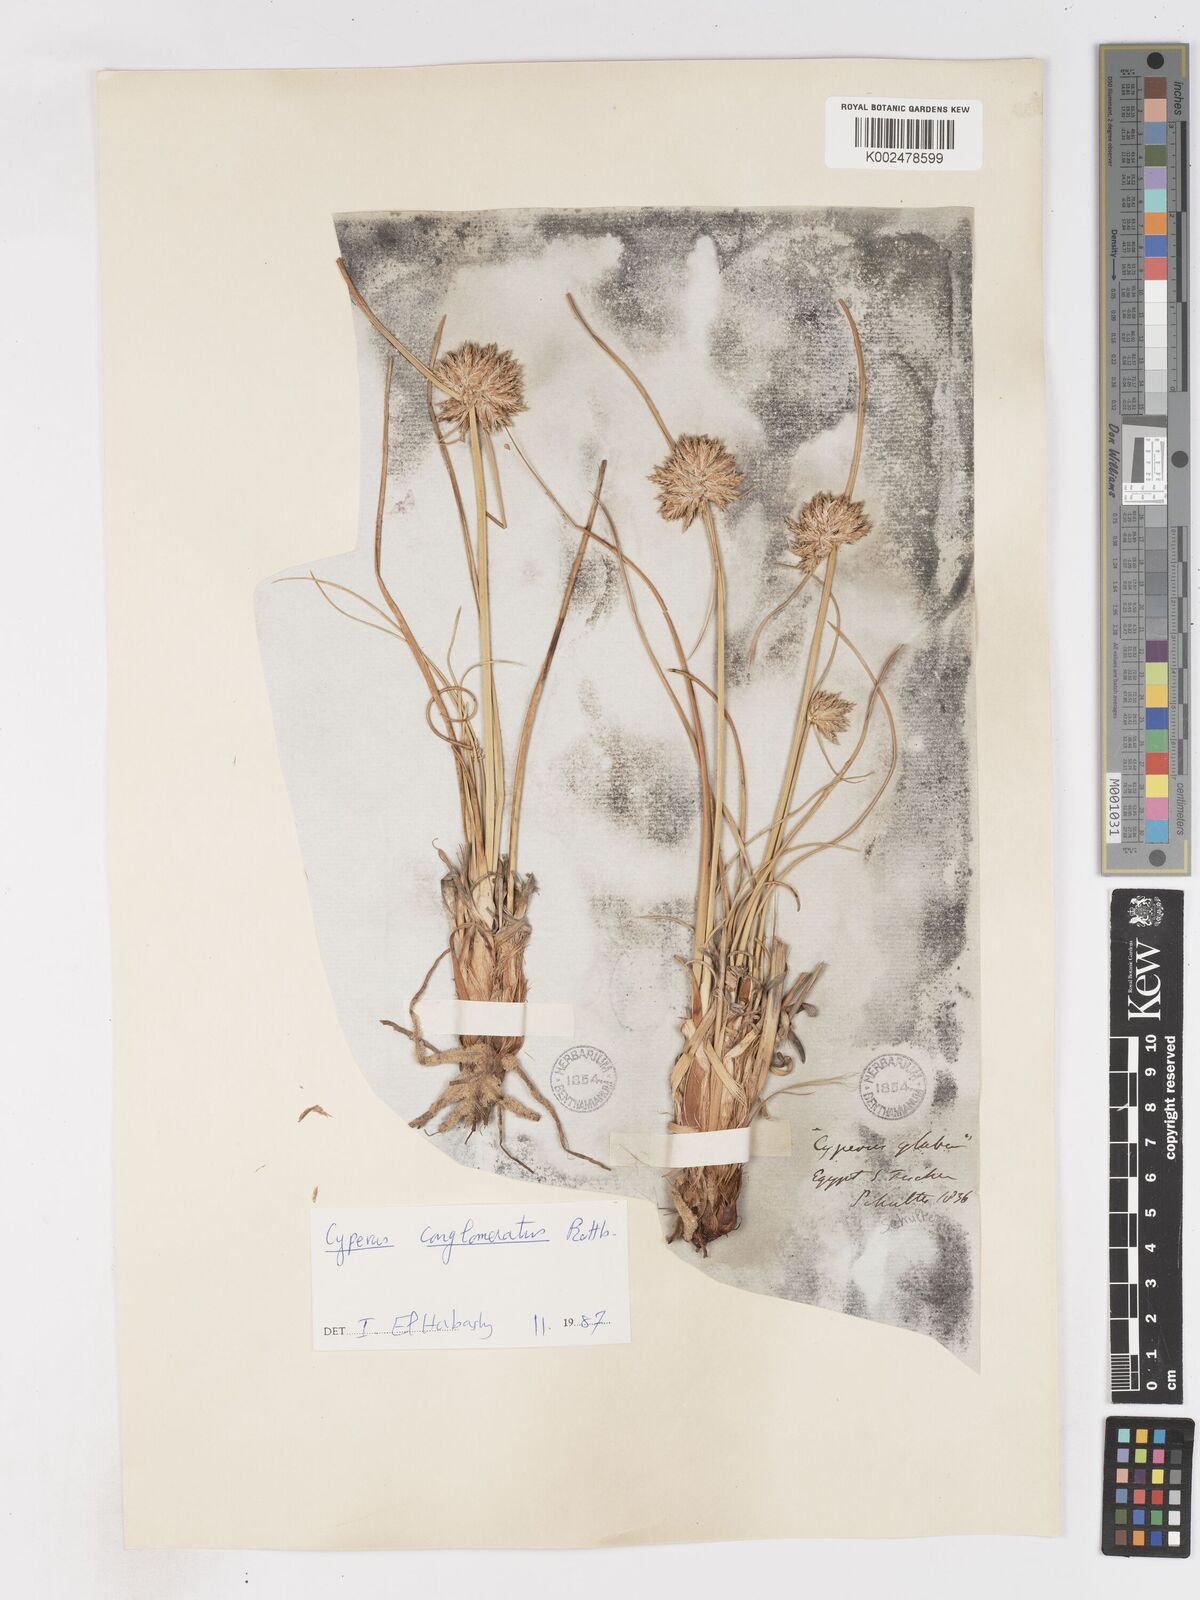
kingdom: Plantae
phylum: Tracheophyta
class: Liliopsida
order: Poales
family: Cyperaceae
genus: Cyperus
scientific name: Cyperus conglomeratus
